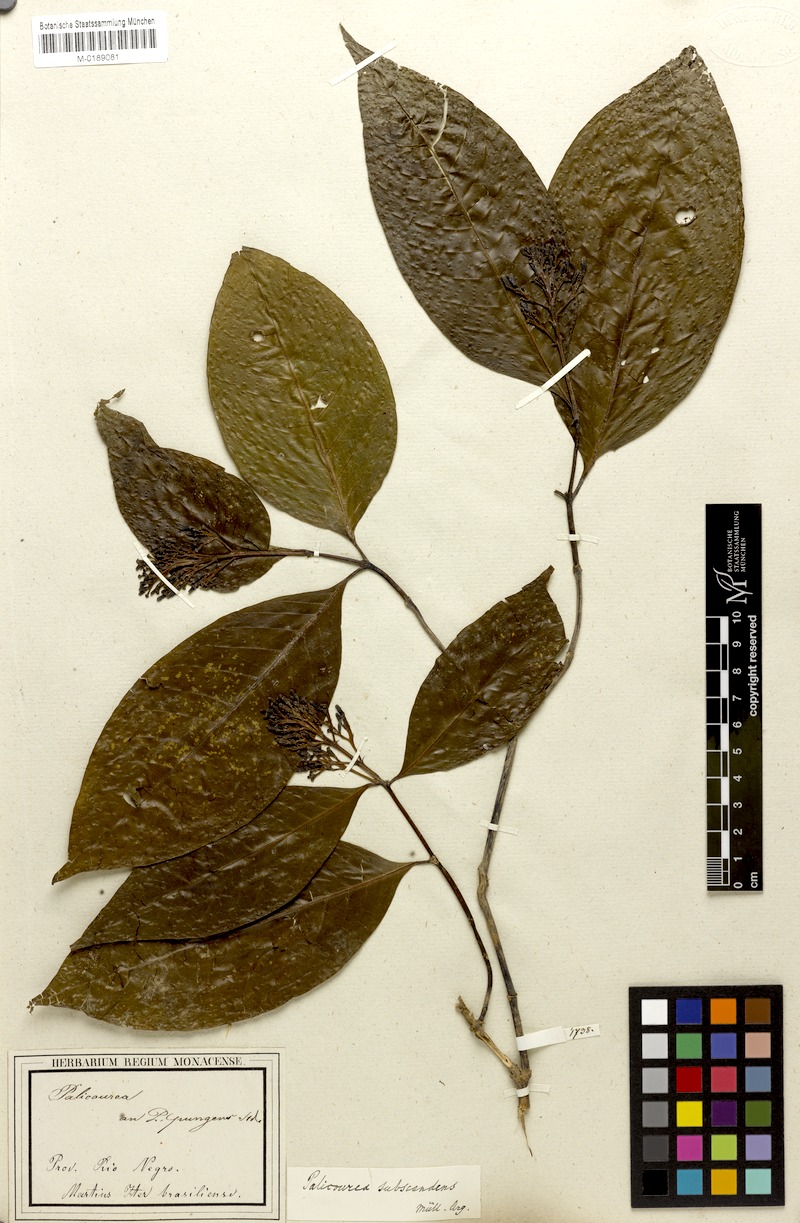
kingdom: Plantae
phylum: Tracheophyta
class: Magnoliopsida
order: Gentianales
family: Rubiaceae
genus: Psychotria
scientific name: Psychotria subscandens
